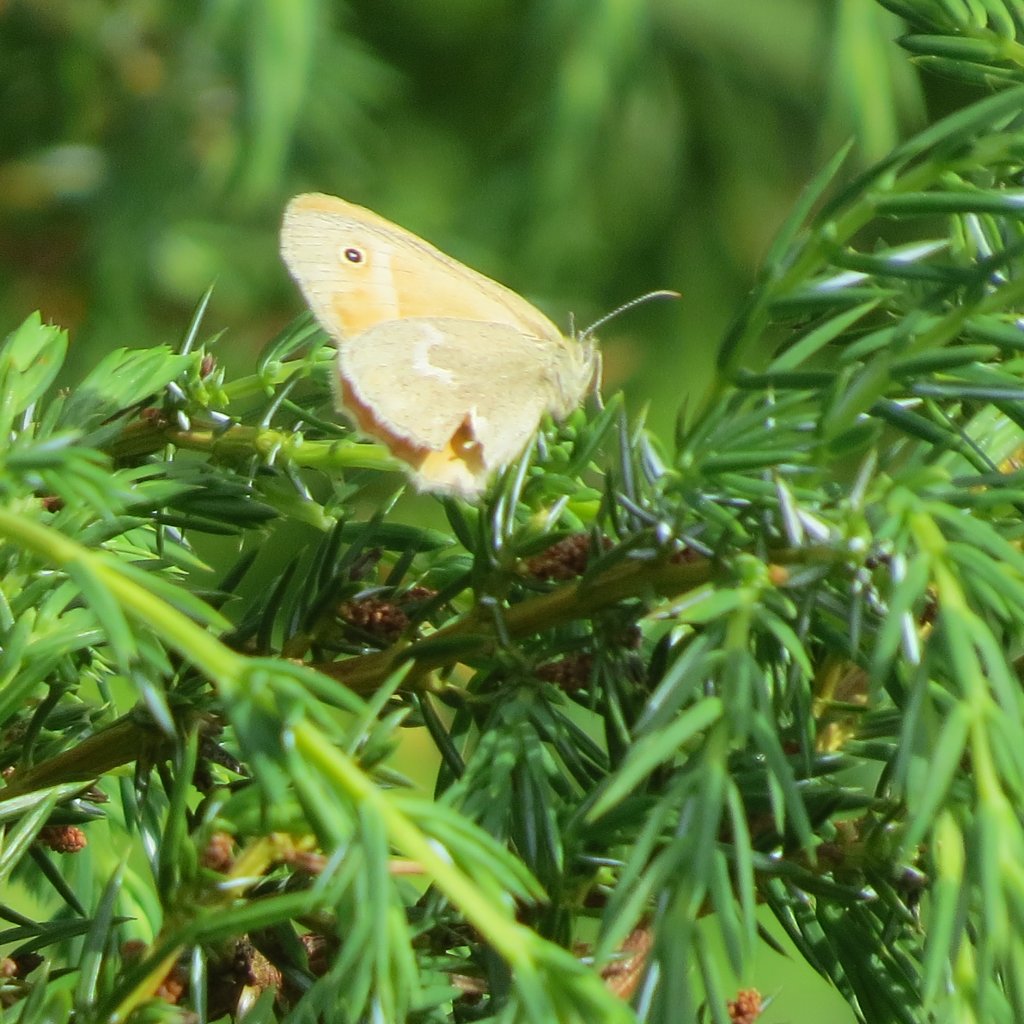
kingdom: Animalia
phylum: Arthropoda
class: Insecta
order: Lepidoptera
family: Nymphalidae
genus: Coenonympha
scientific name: Coenonympha tullia
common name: Large Heath
